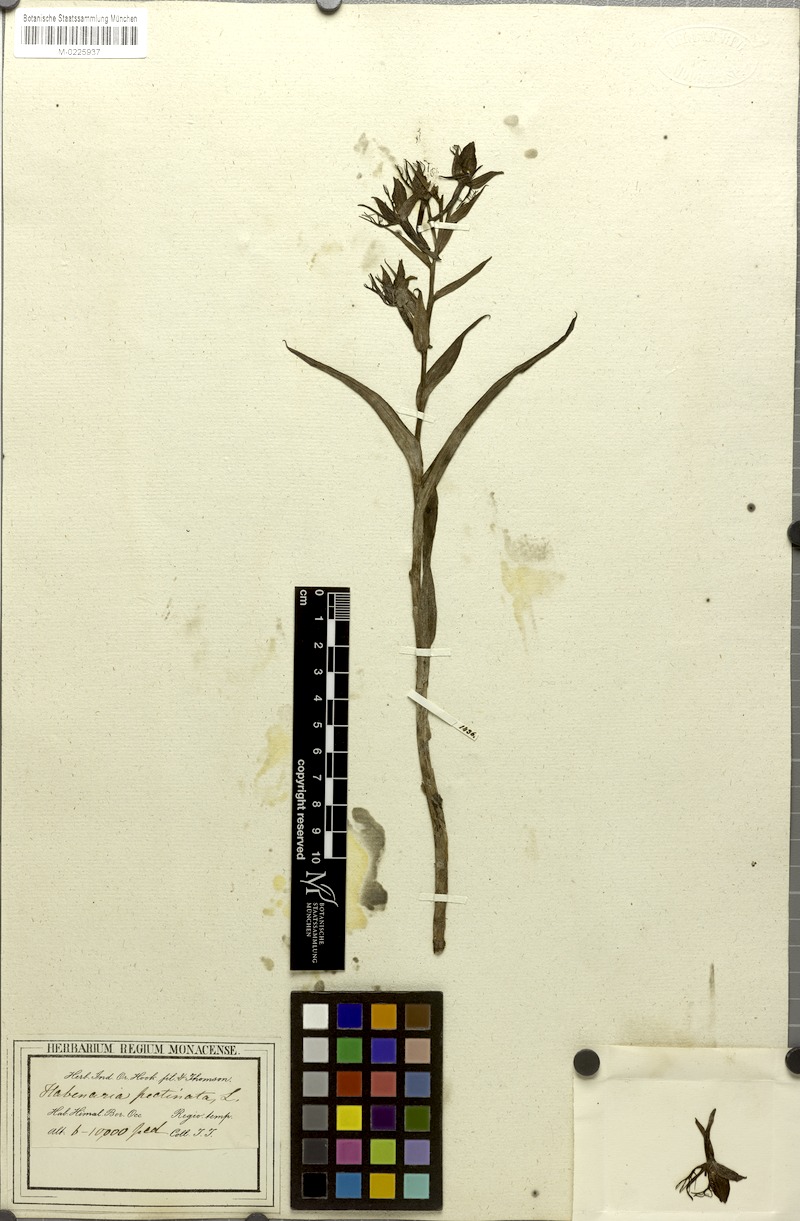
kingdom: Plantae
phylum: Tracheophyta
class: Liliopsida
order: Asparagales
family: Orchidaceae
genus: Habenaria
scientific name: Habenaria pectinata
